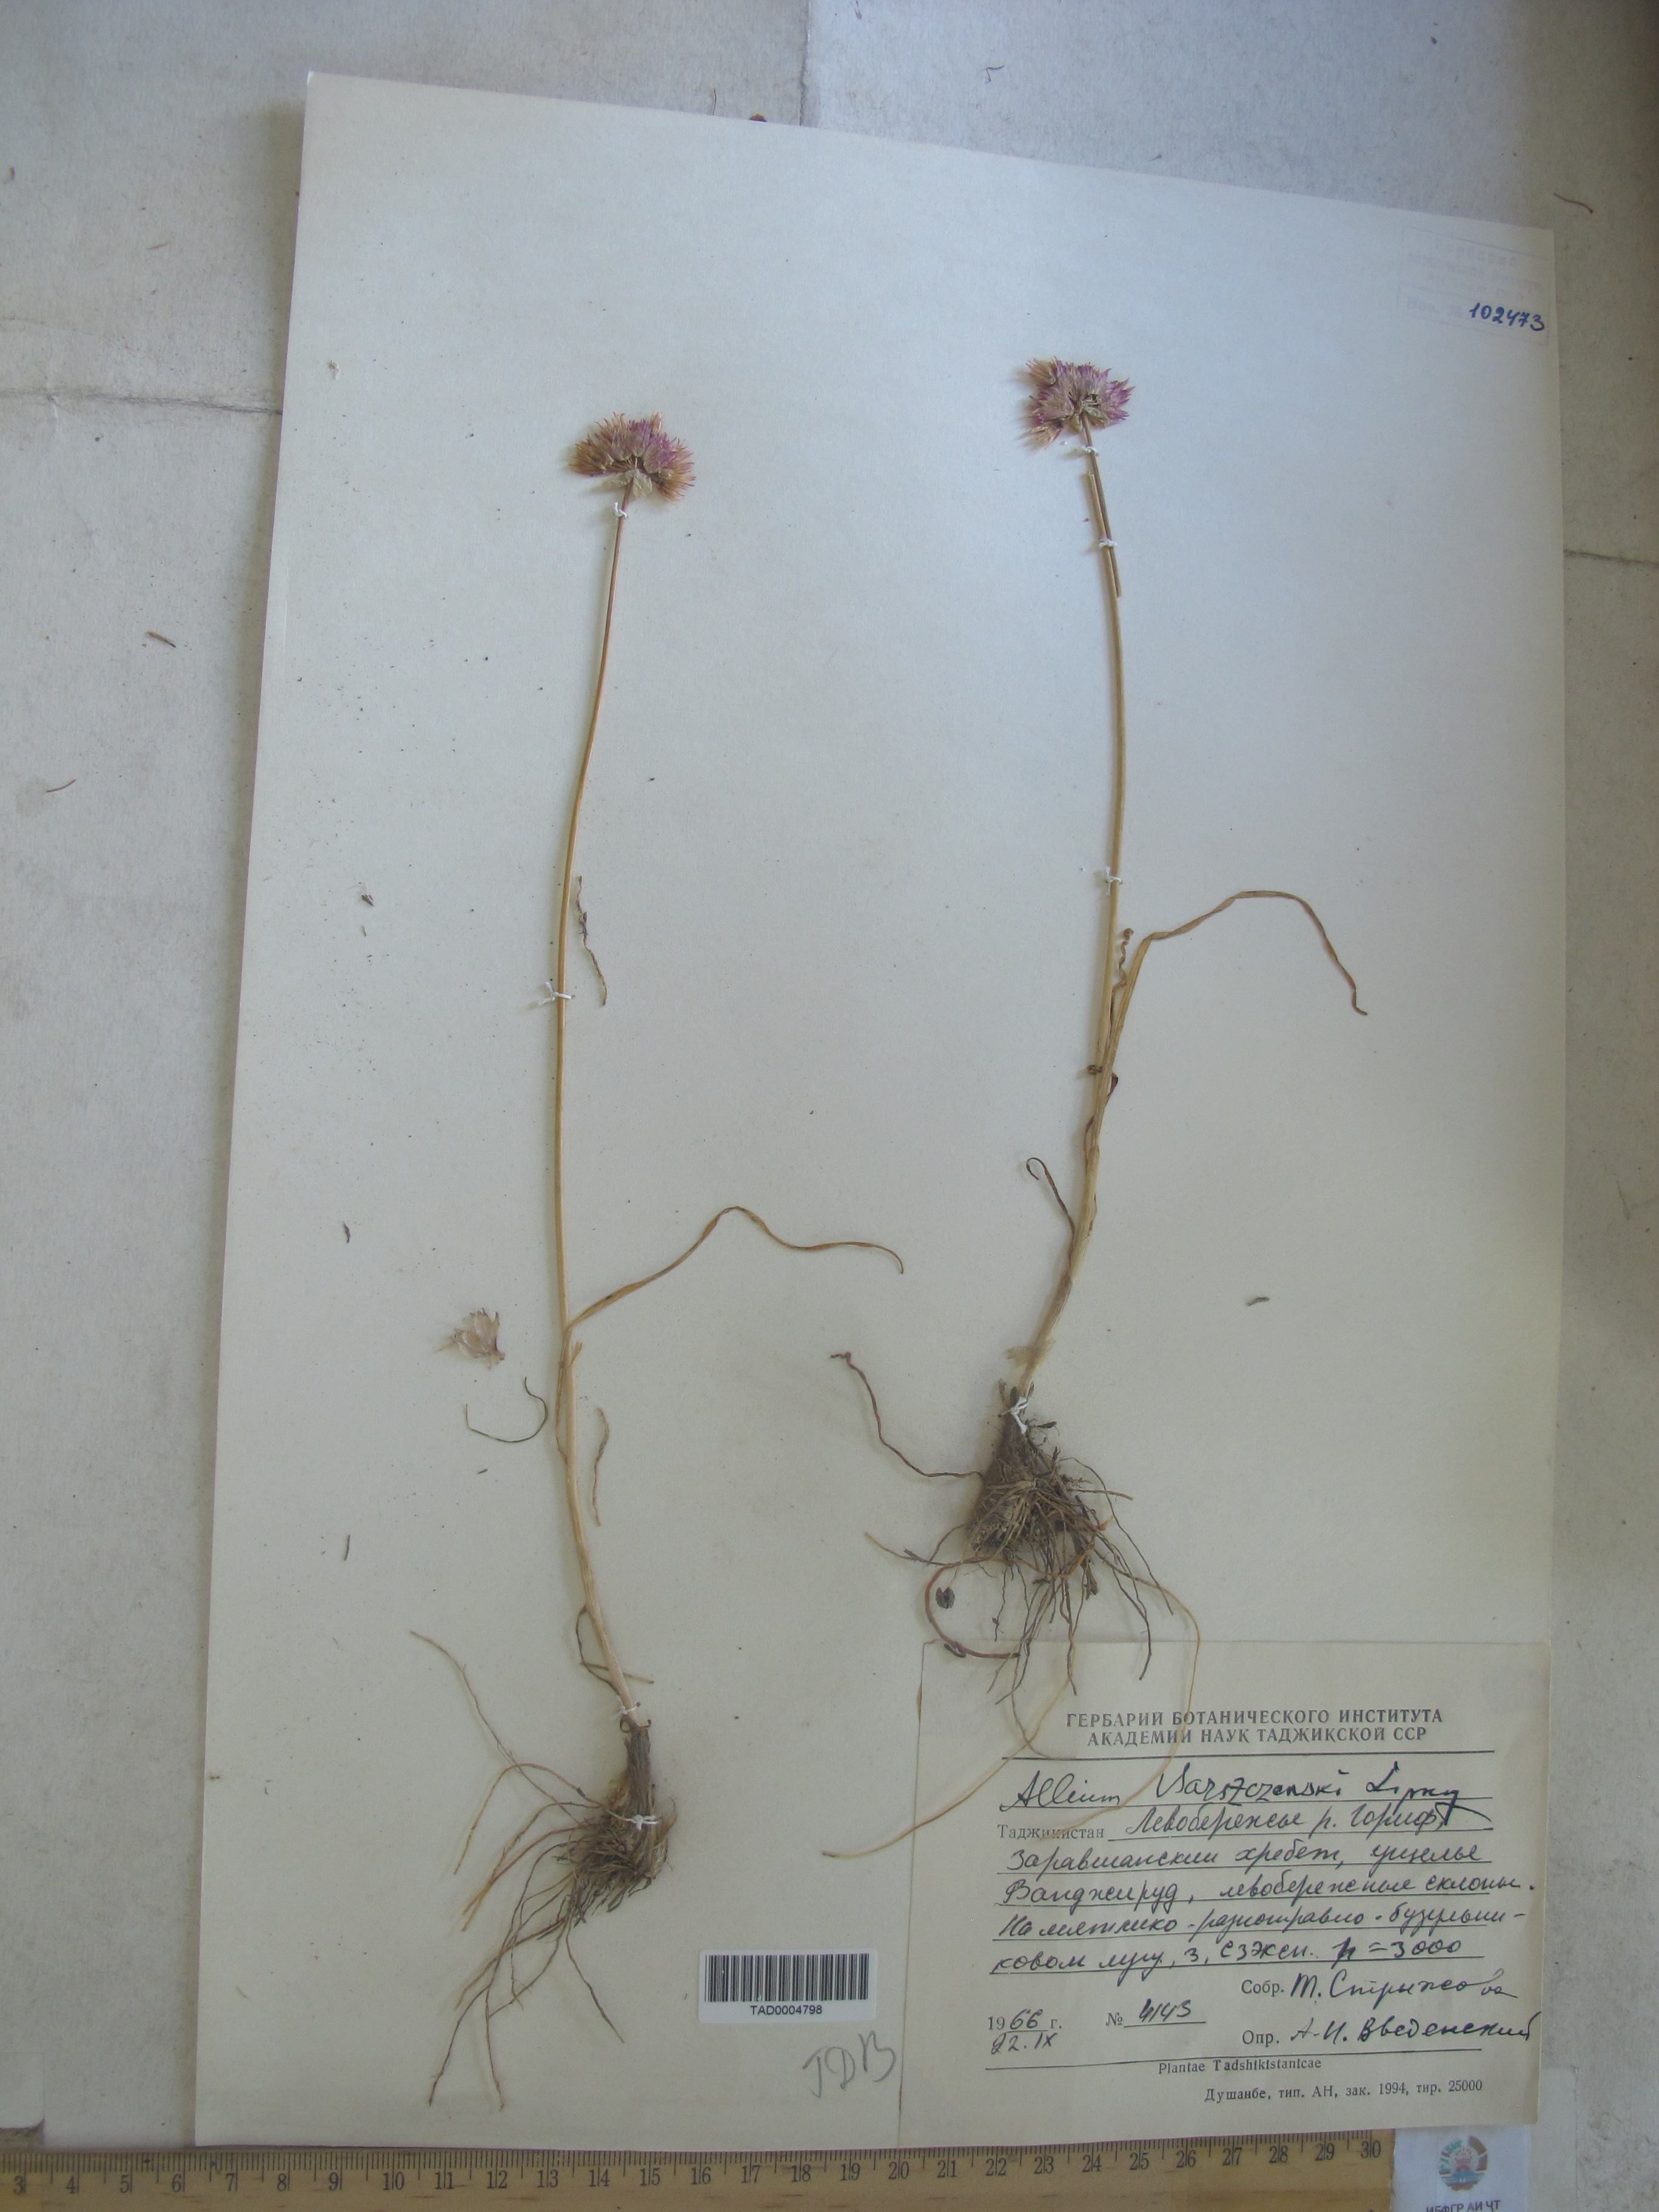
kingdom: Plantae
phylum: Tracheophyta
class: Liliopsida
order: Asparagales
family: Amaryllidaceae
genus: Allium
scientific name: Allium barsczewskii
